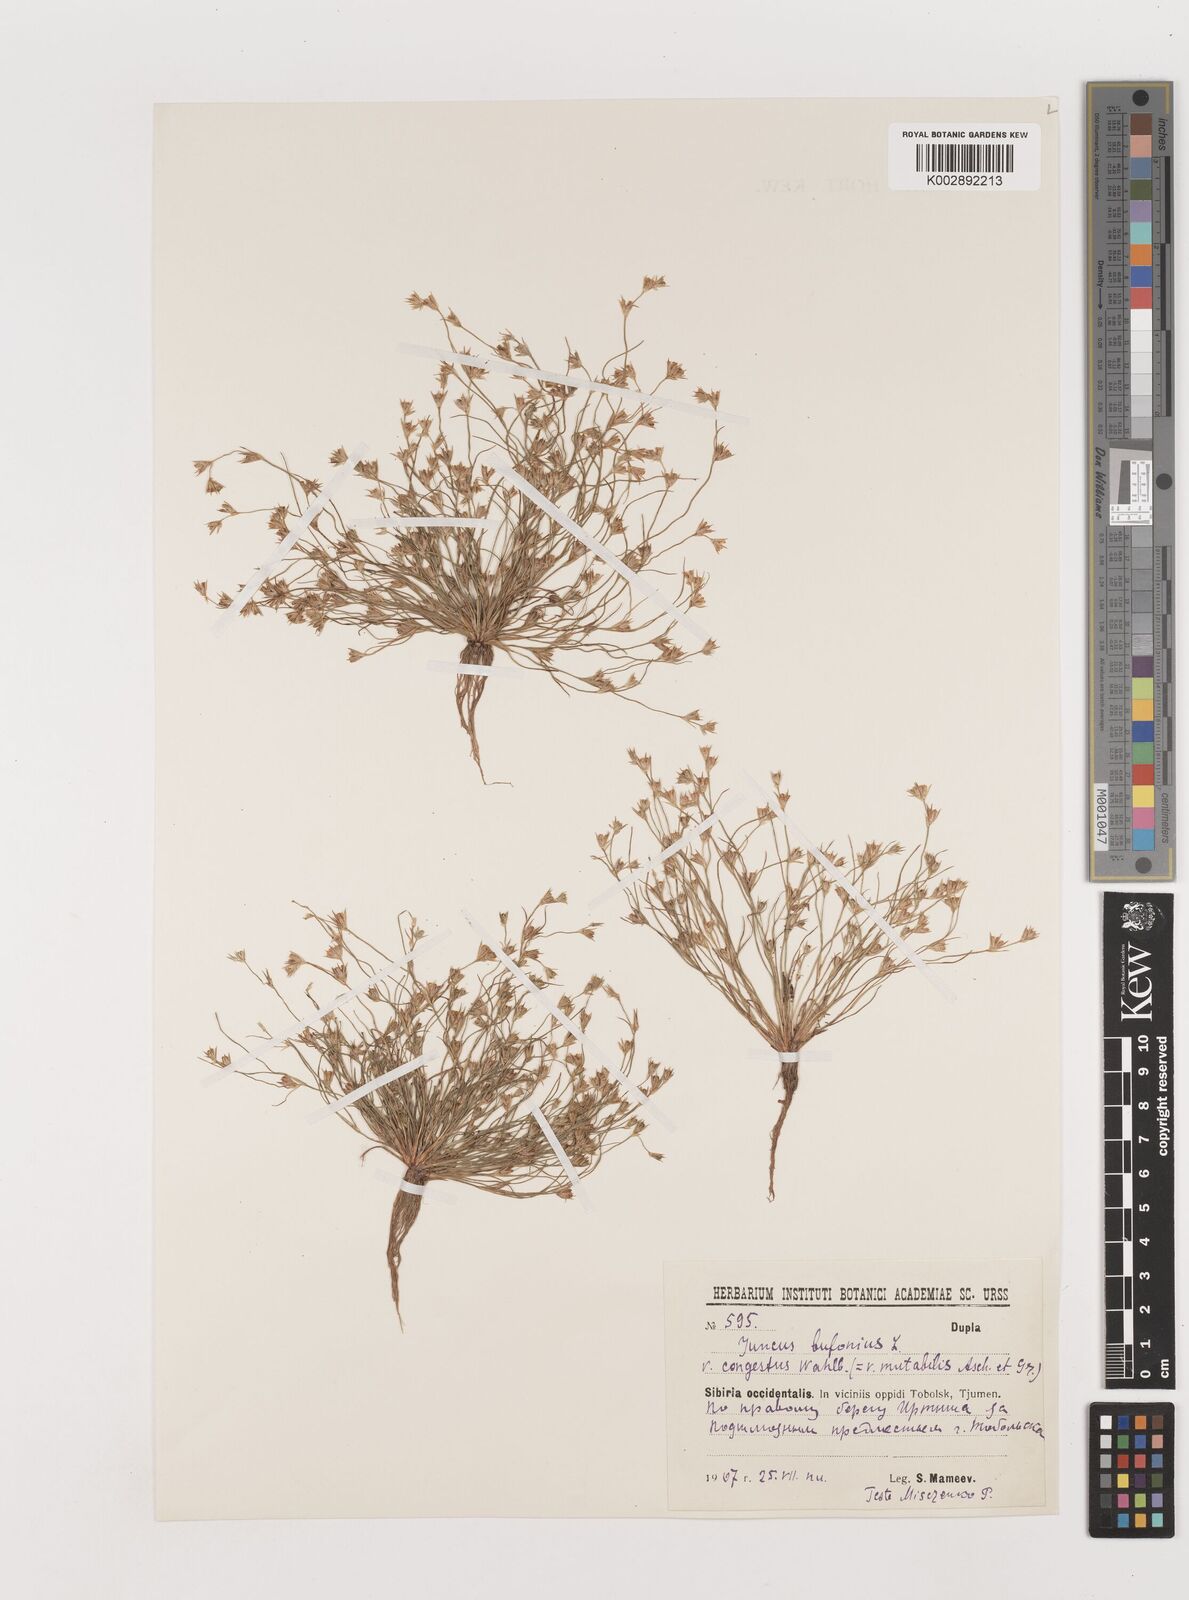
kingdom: Plantae
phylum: Tracheophyta
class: Liliopsida
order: Poales
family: Juncaceae
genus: Juncus
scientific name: Juncus bufonius
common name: Toad rush
